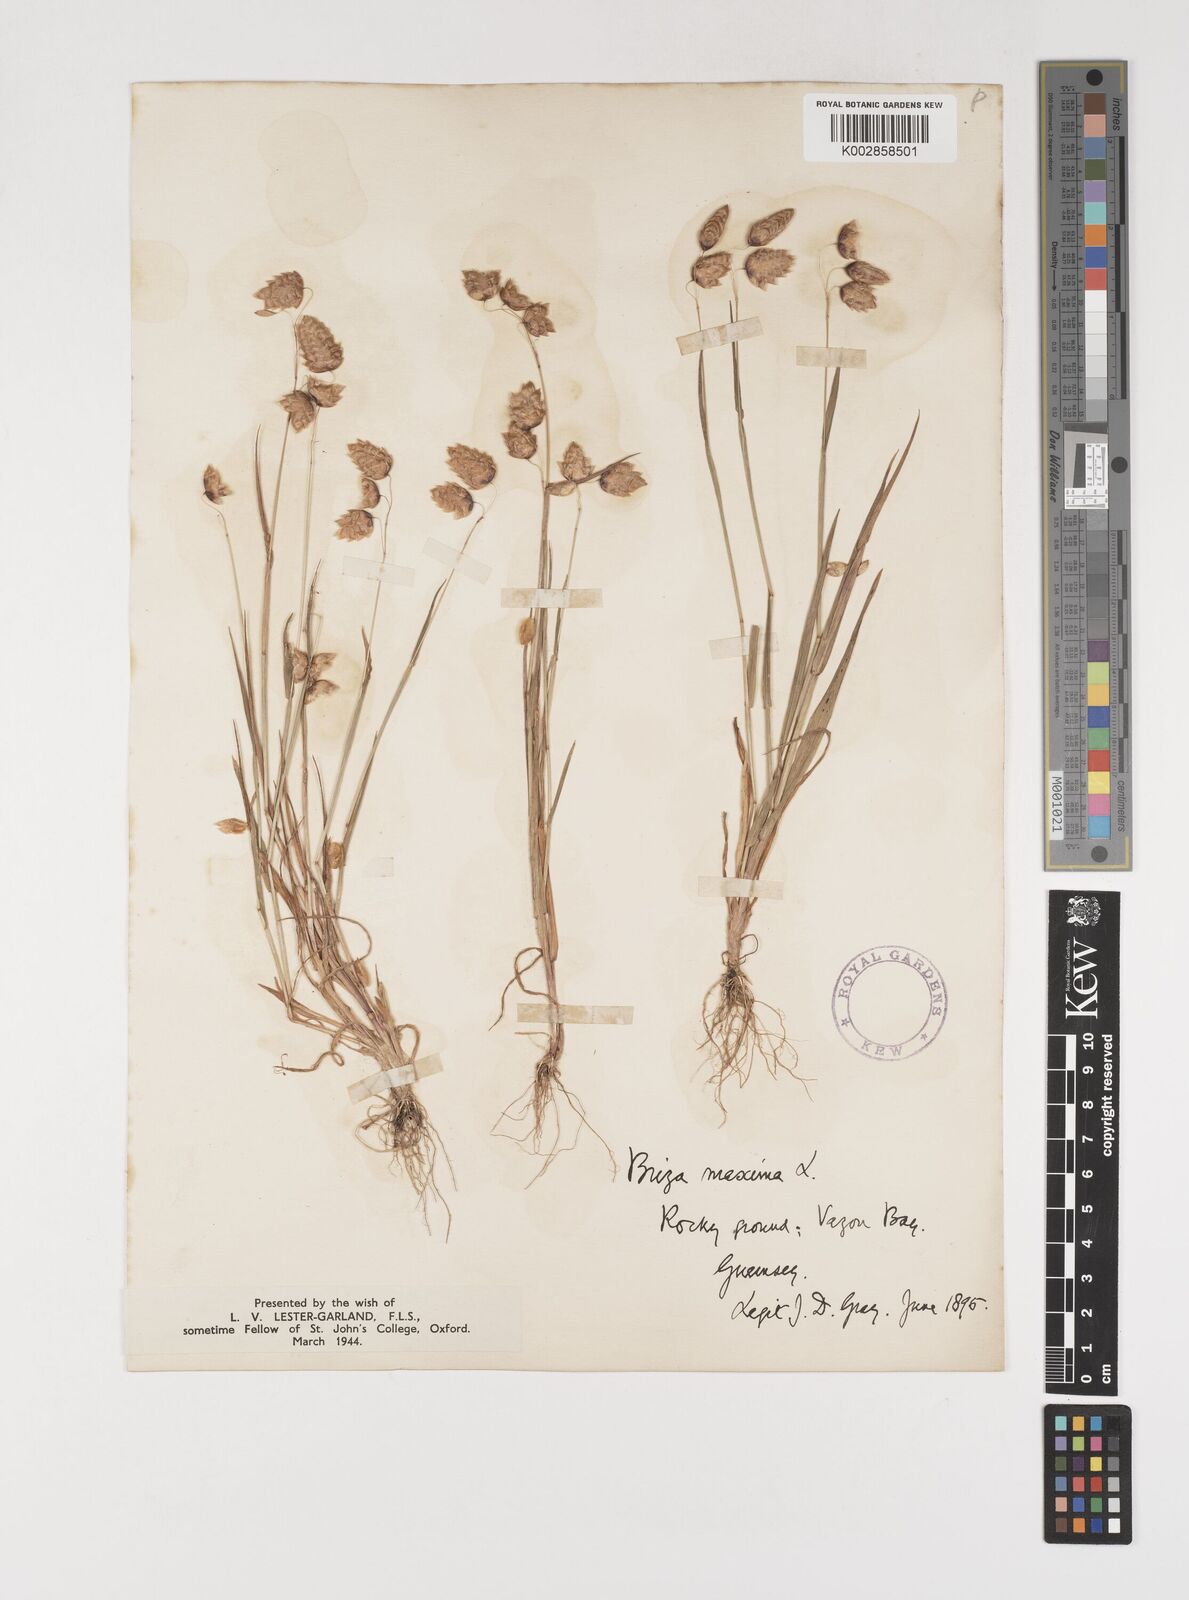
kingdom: Plantae
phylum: Tracheophyta
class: Liliopsida
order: Poales
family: Poaceae
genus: Briza
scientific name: Briza maxima
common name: Big quakinggrass
